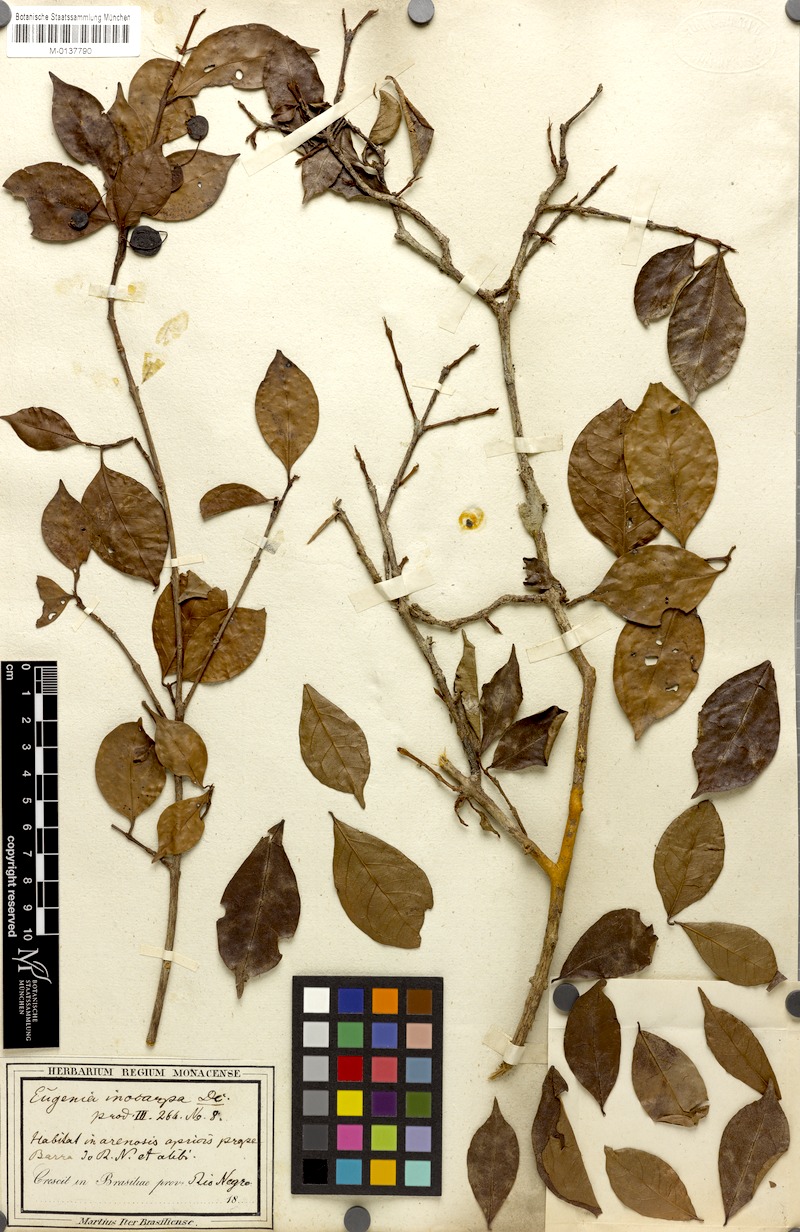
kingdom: Plantae
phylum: Tracheophyta
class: Magnoliopsida
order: Myrtales
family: Myrtaceae
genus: Eugenia
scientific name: Eugenia patrisii
